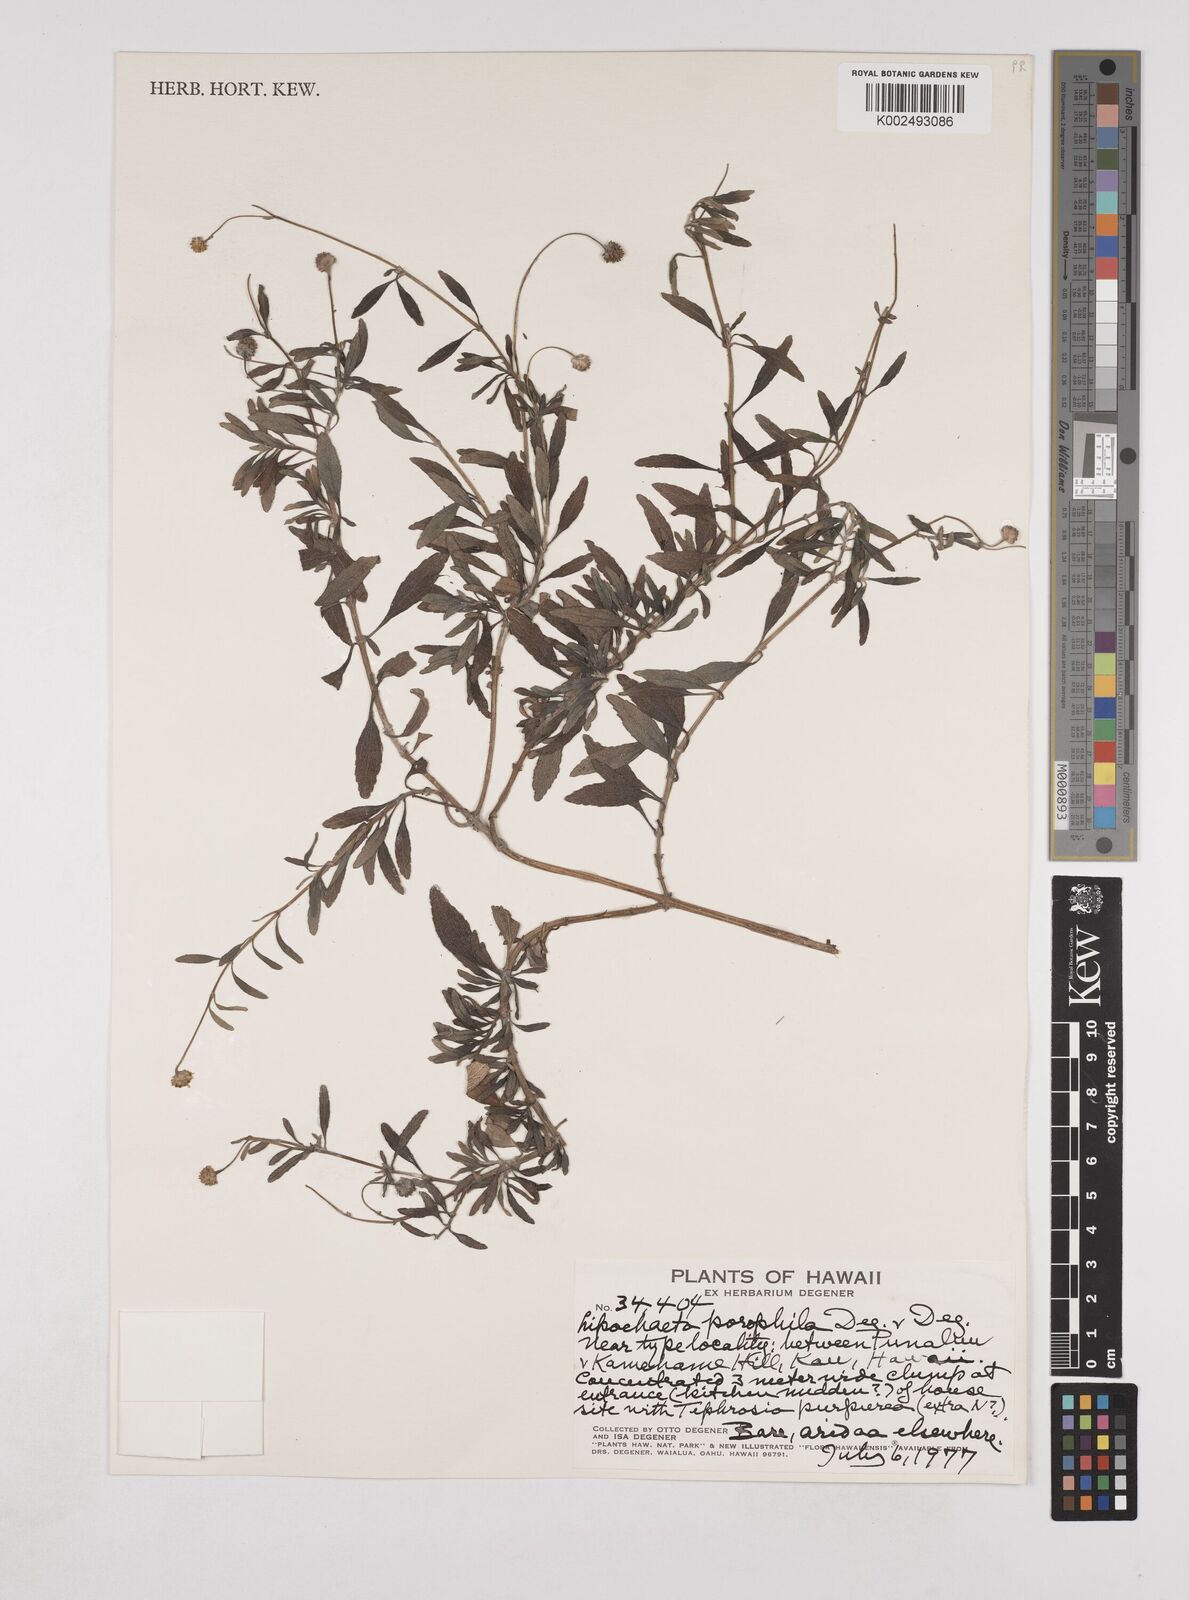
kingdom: Plantae
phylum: Tracheophyta
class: Magnoliopsida
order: Asterales
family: Asteraceae
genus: Lipochaeta
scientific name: Lipochaeta integrifolia
